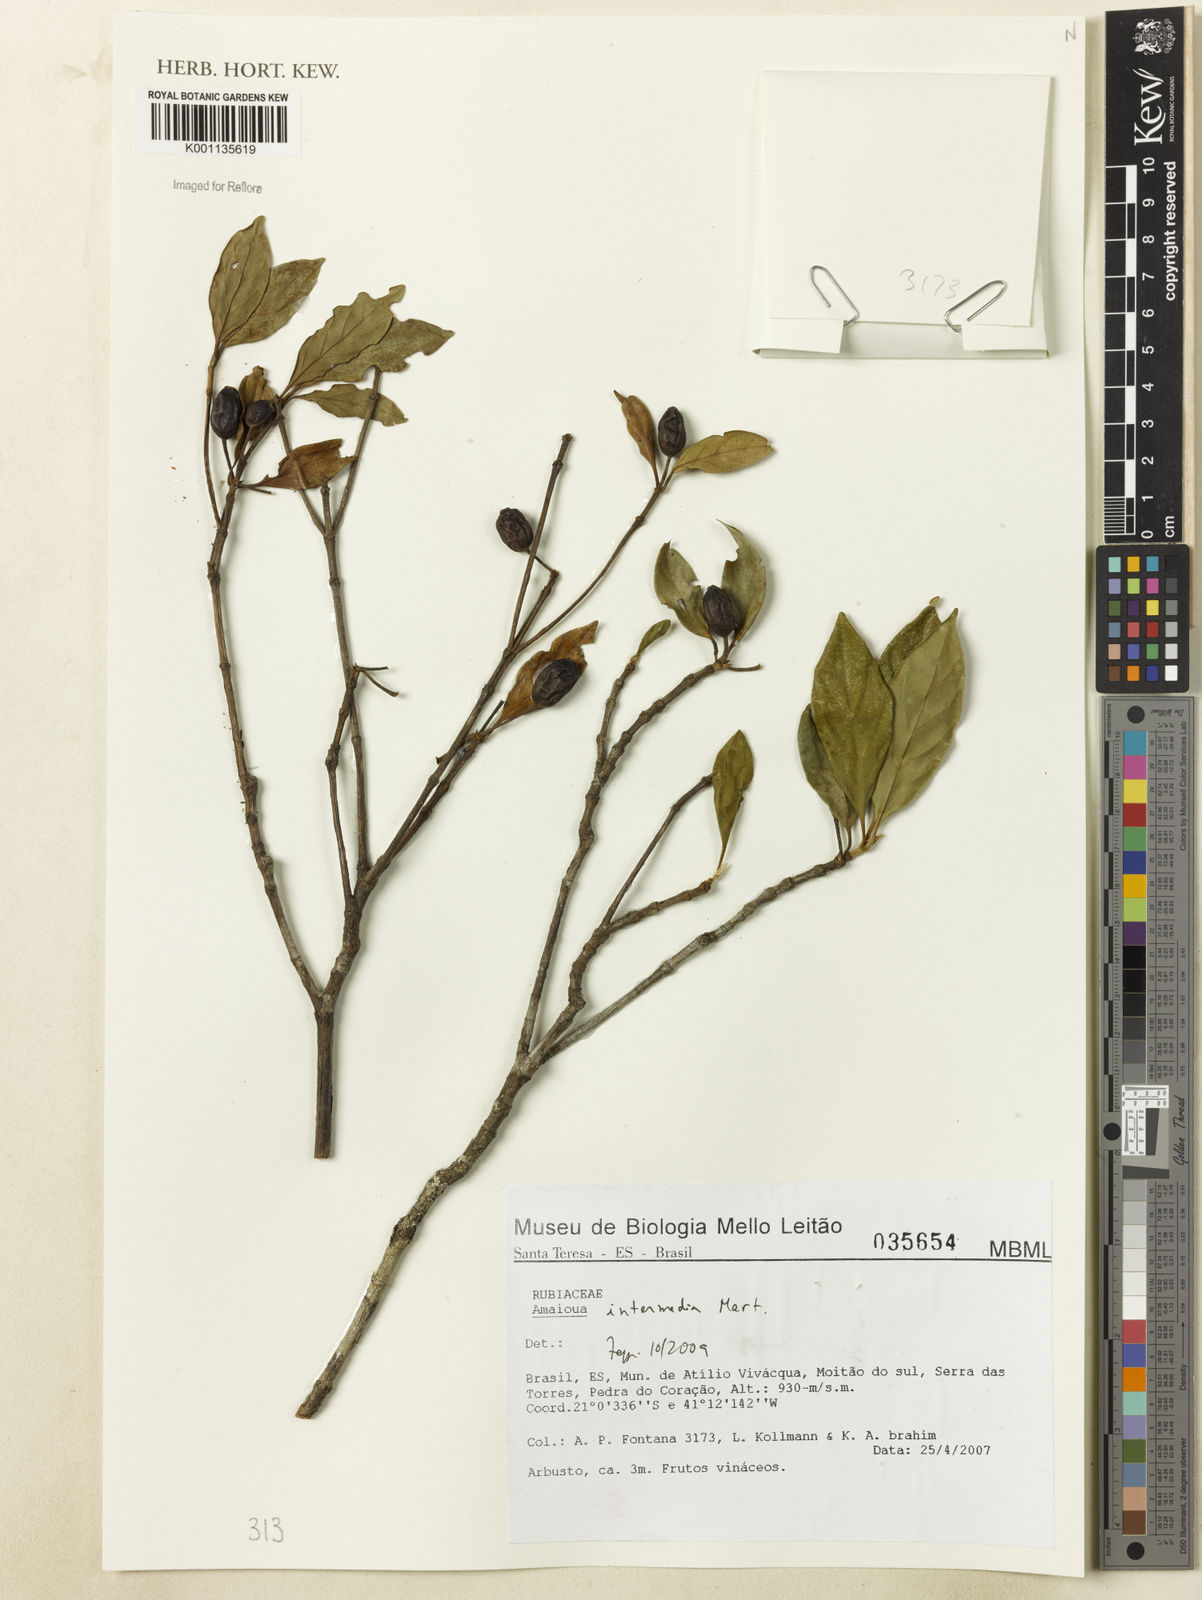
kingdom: Plantae
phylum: Tracheophyta
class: Magnoliopsida
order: Gentianales
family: Rubiaceae
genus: Amaioua
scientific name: Amaioua intermedia
